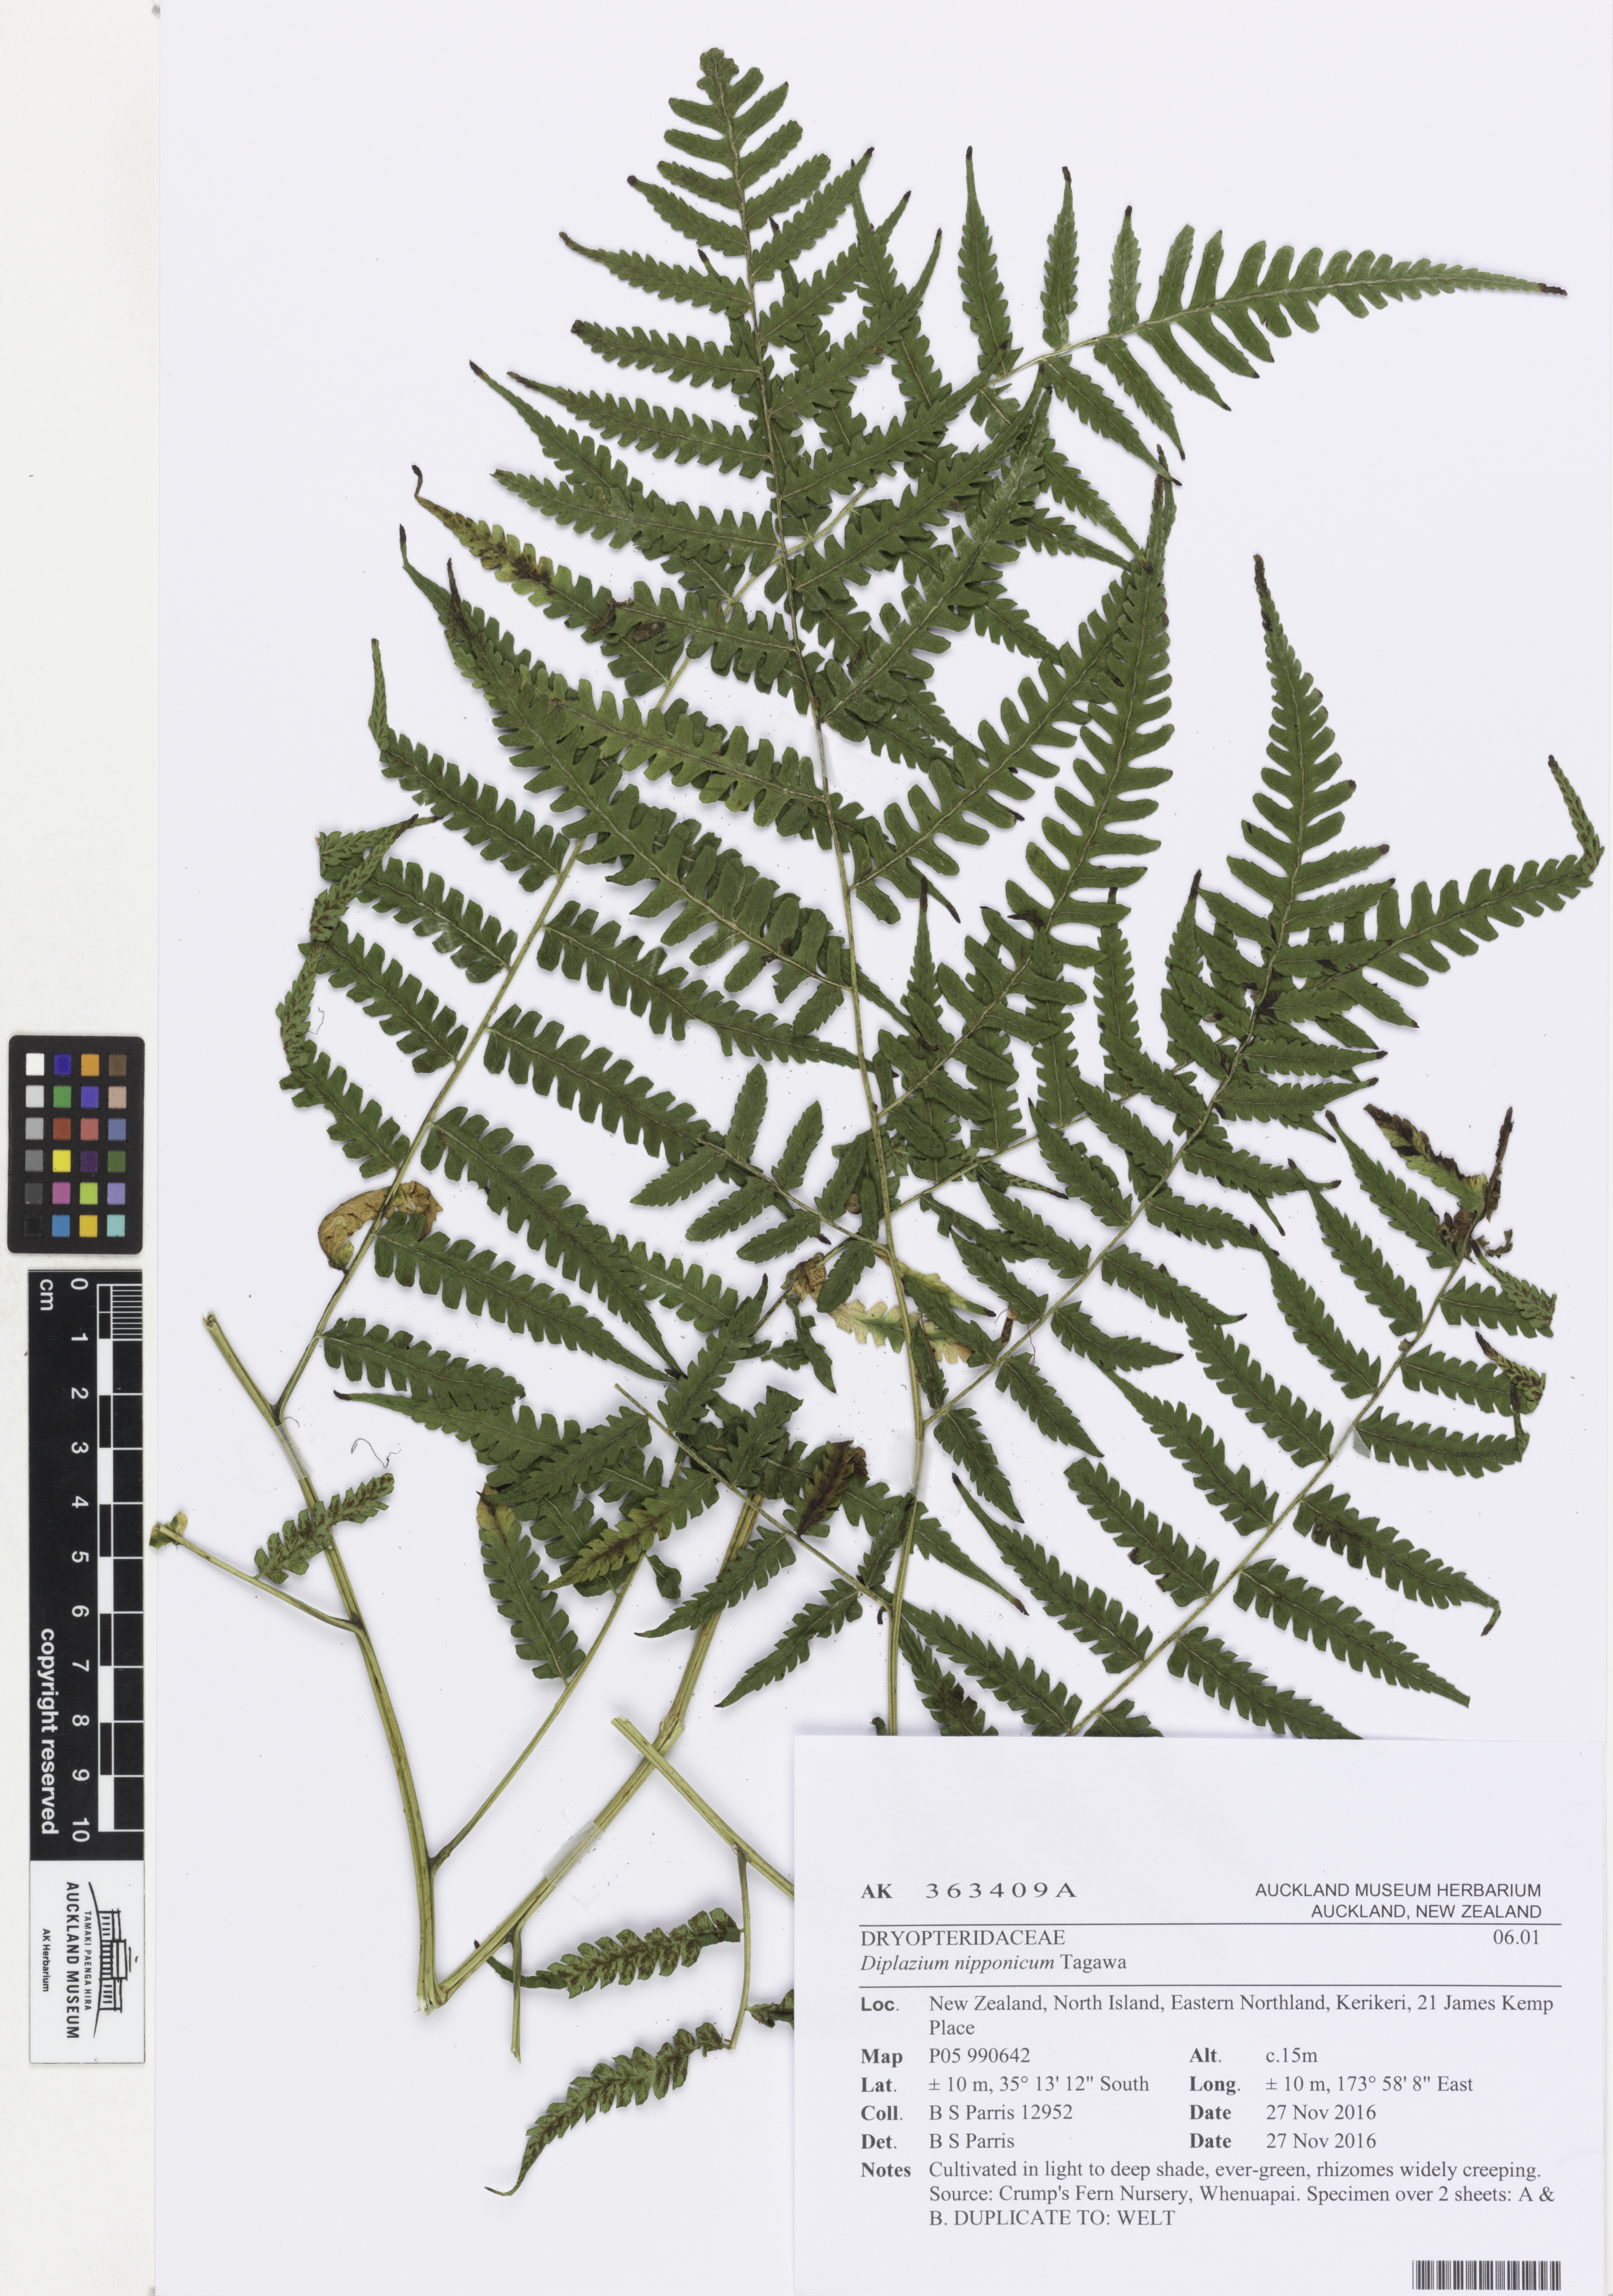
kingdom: Plantae
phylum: Tracheophyta
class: Polypodiopsida
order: Polypodiales
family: Athyriaceae
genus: Diplazium
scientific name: Diplazium nipponicum
